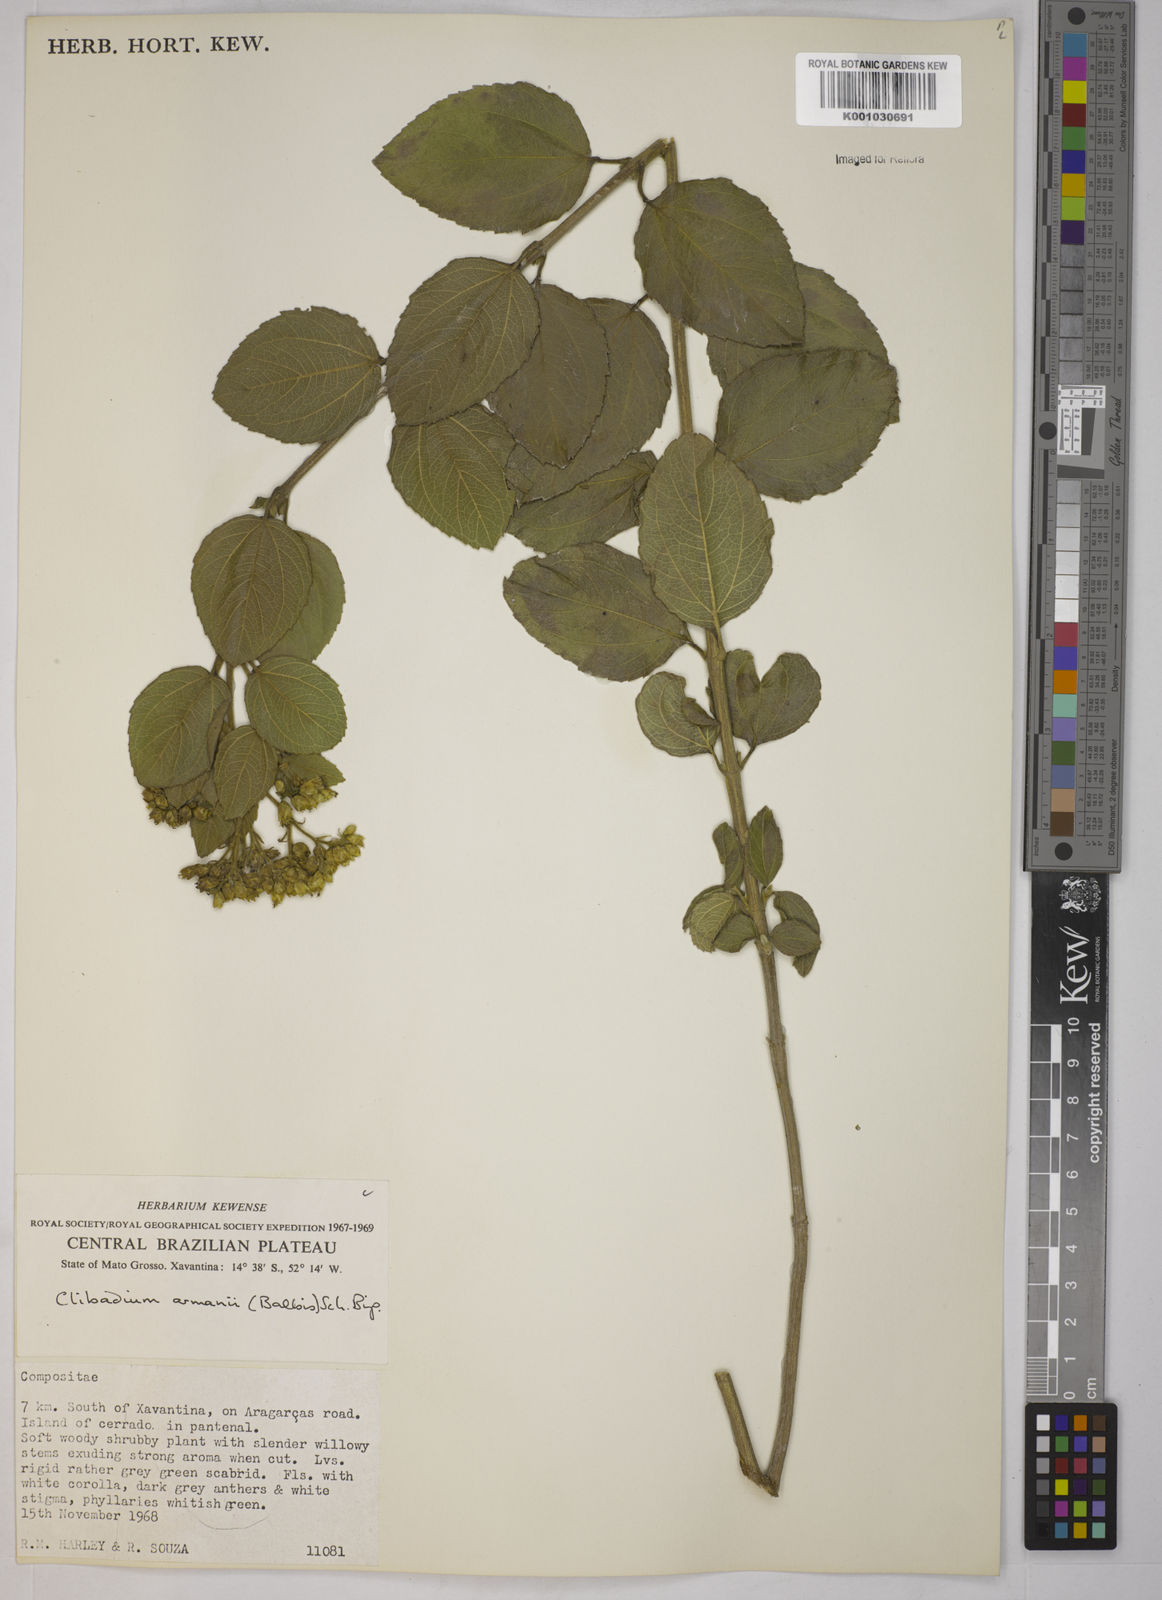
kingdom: Plantae
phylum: Tracheophyta
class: Magnoliopsida
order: Asterales
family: Asteraceae
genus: Clibadium
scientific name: Clibadium armanii
